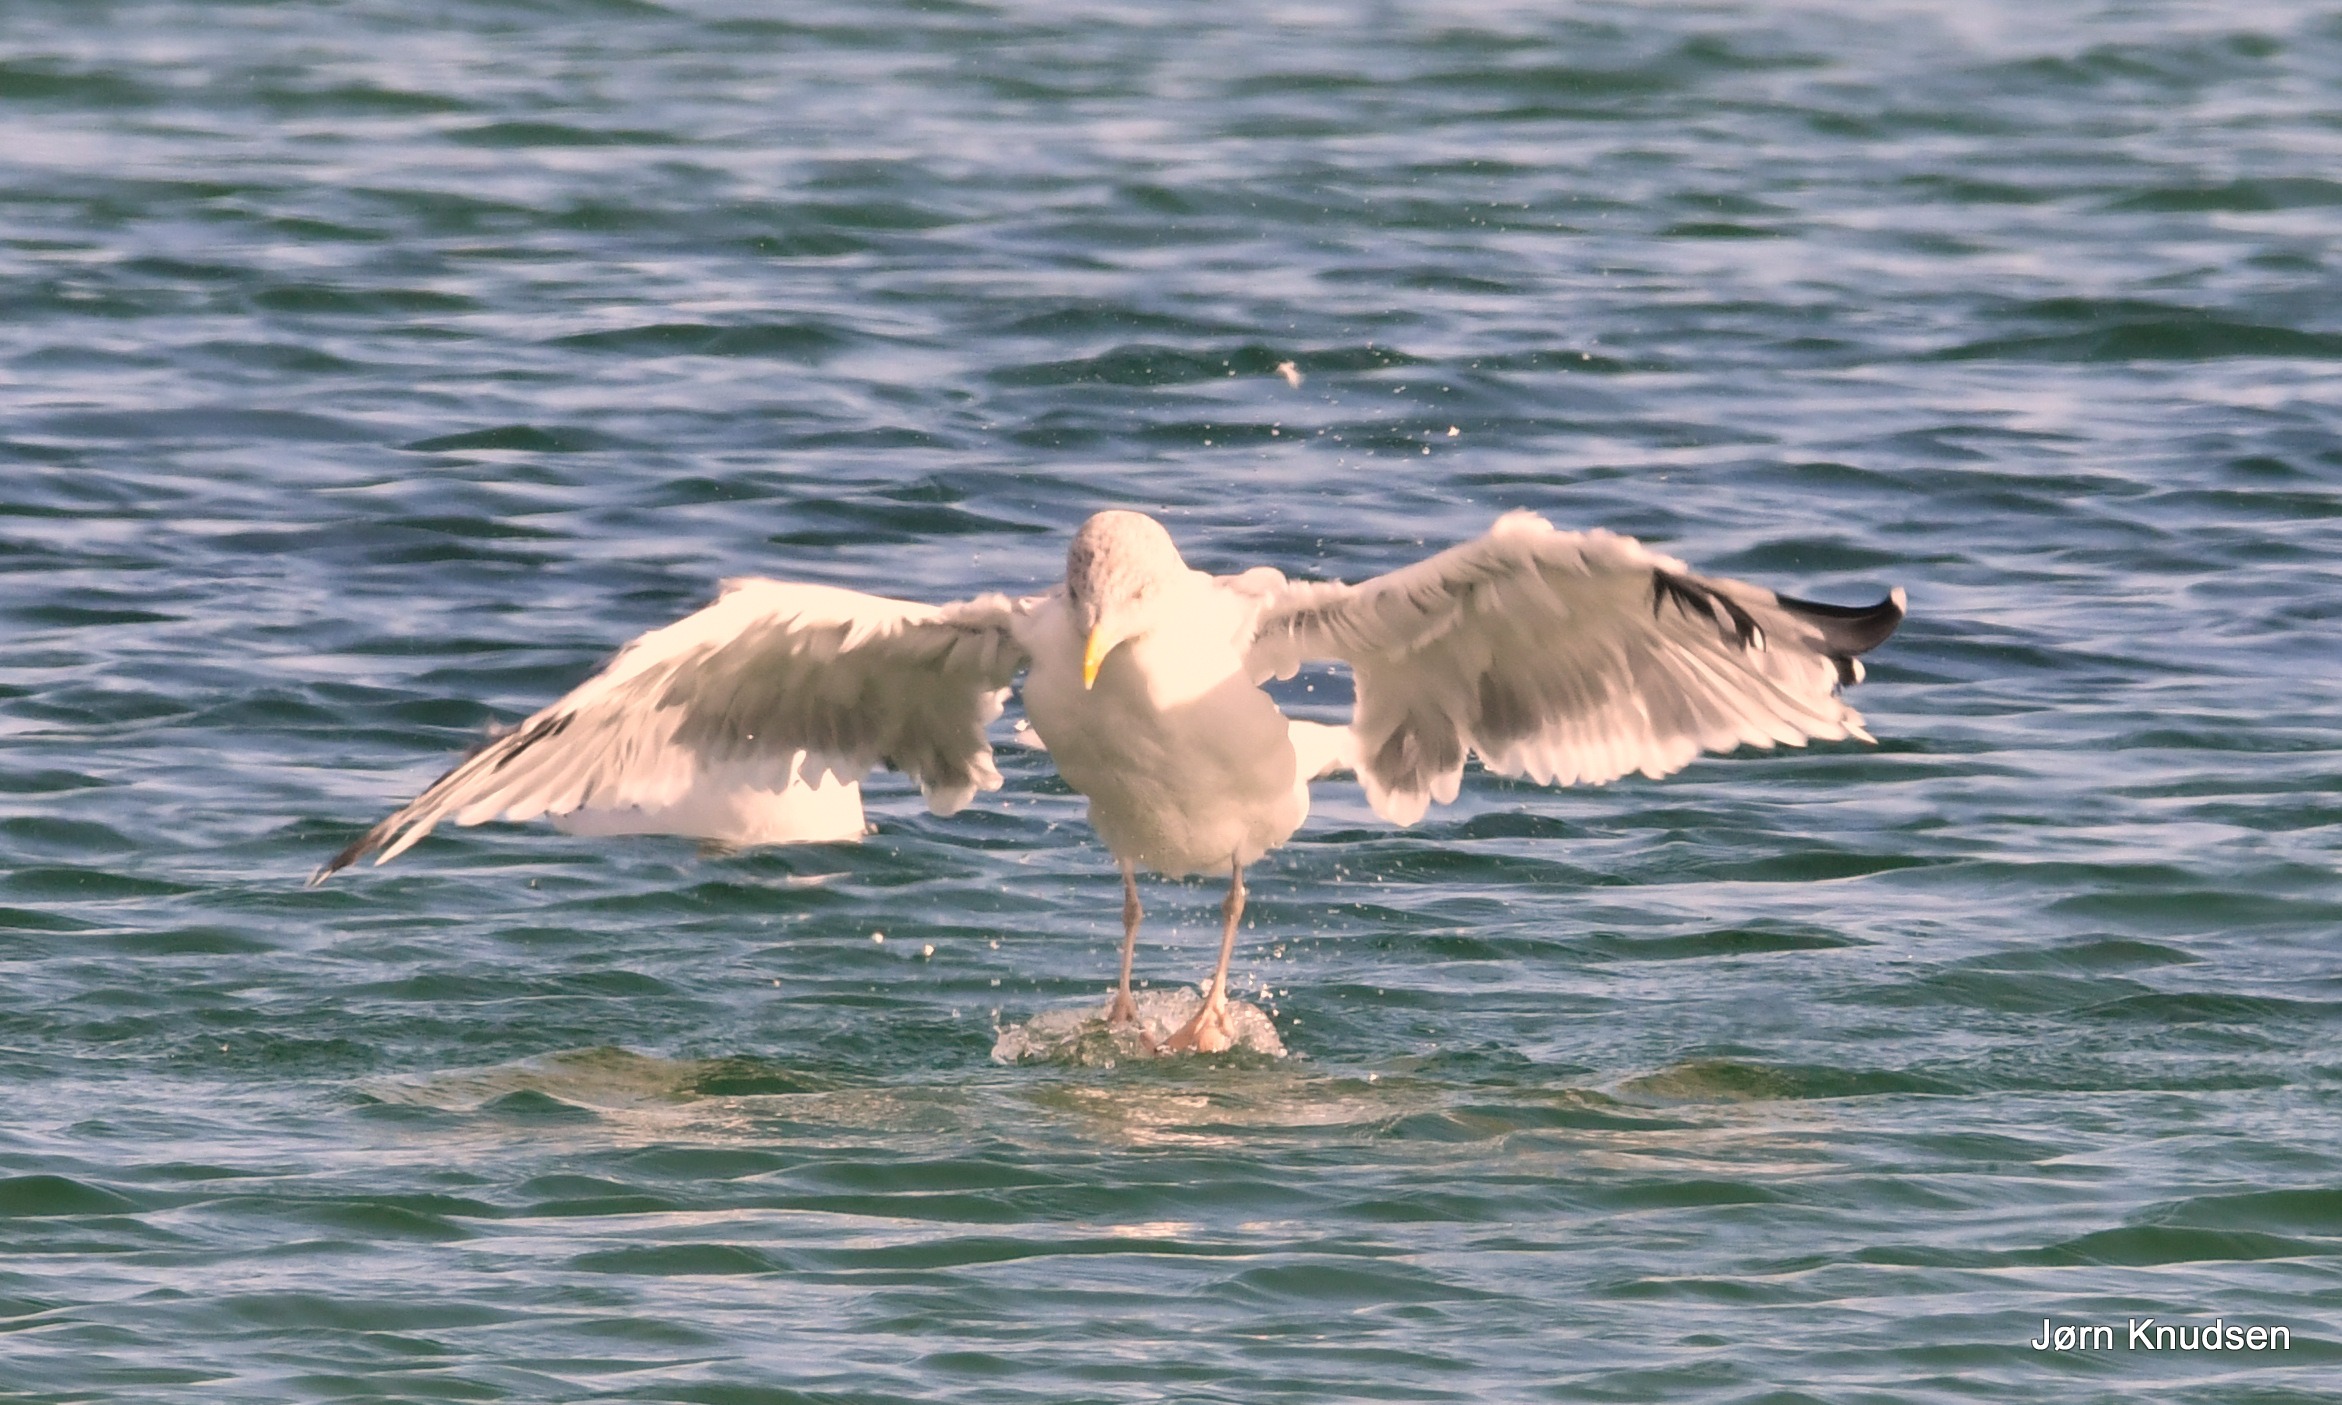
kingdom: Animalia
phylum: Chordata
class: Aves
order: Charadriiformes
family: Laridae
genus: Larus
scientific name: Larus argentatus
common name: Sølvmåge
